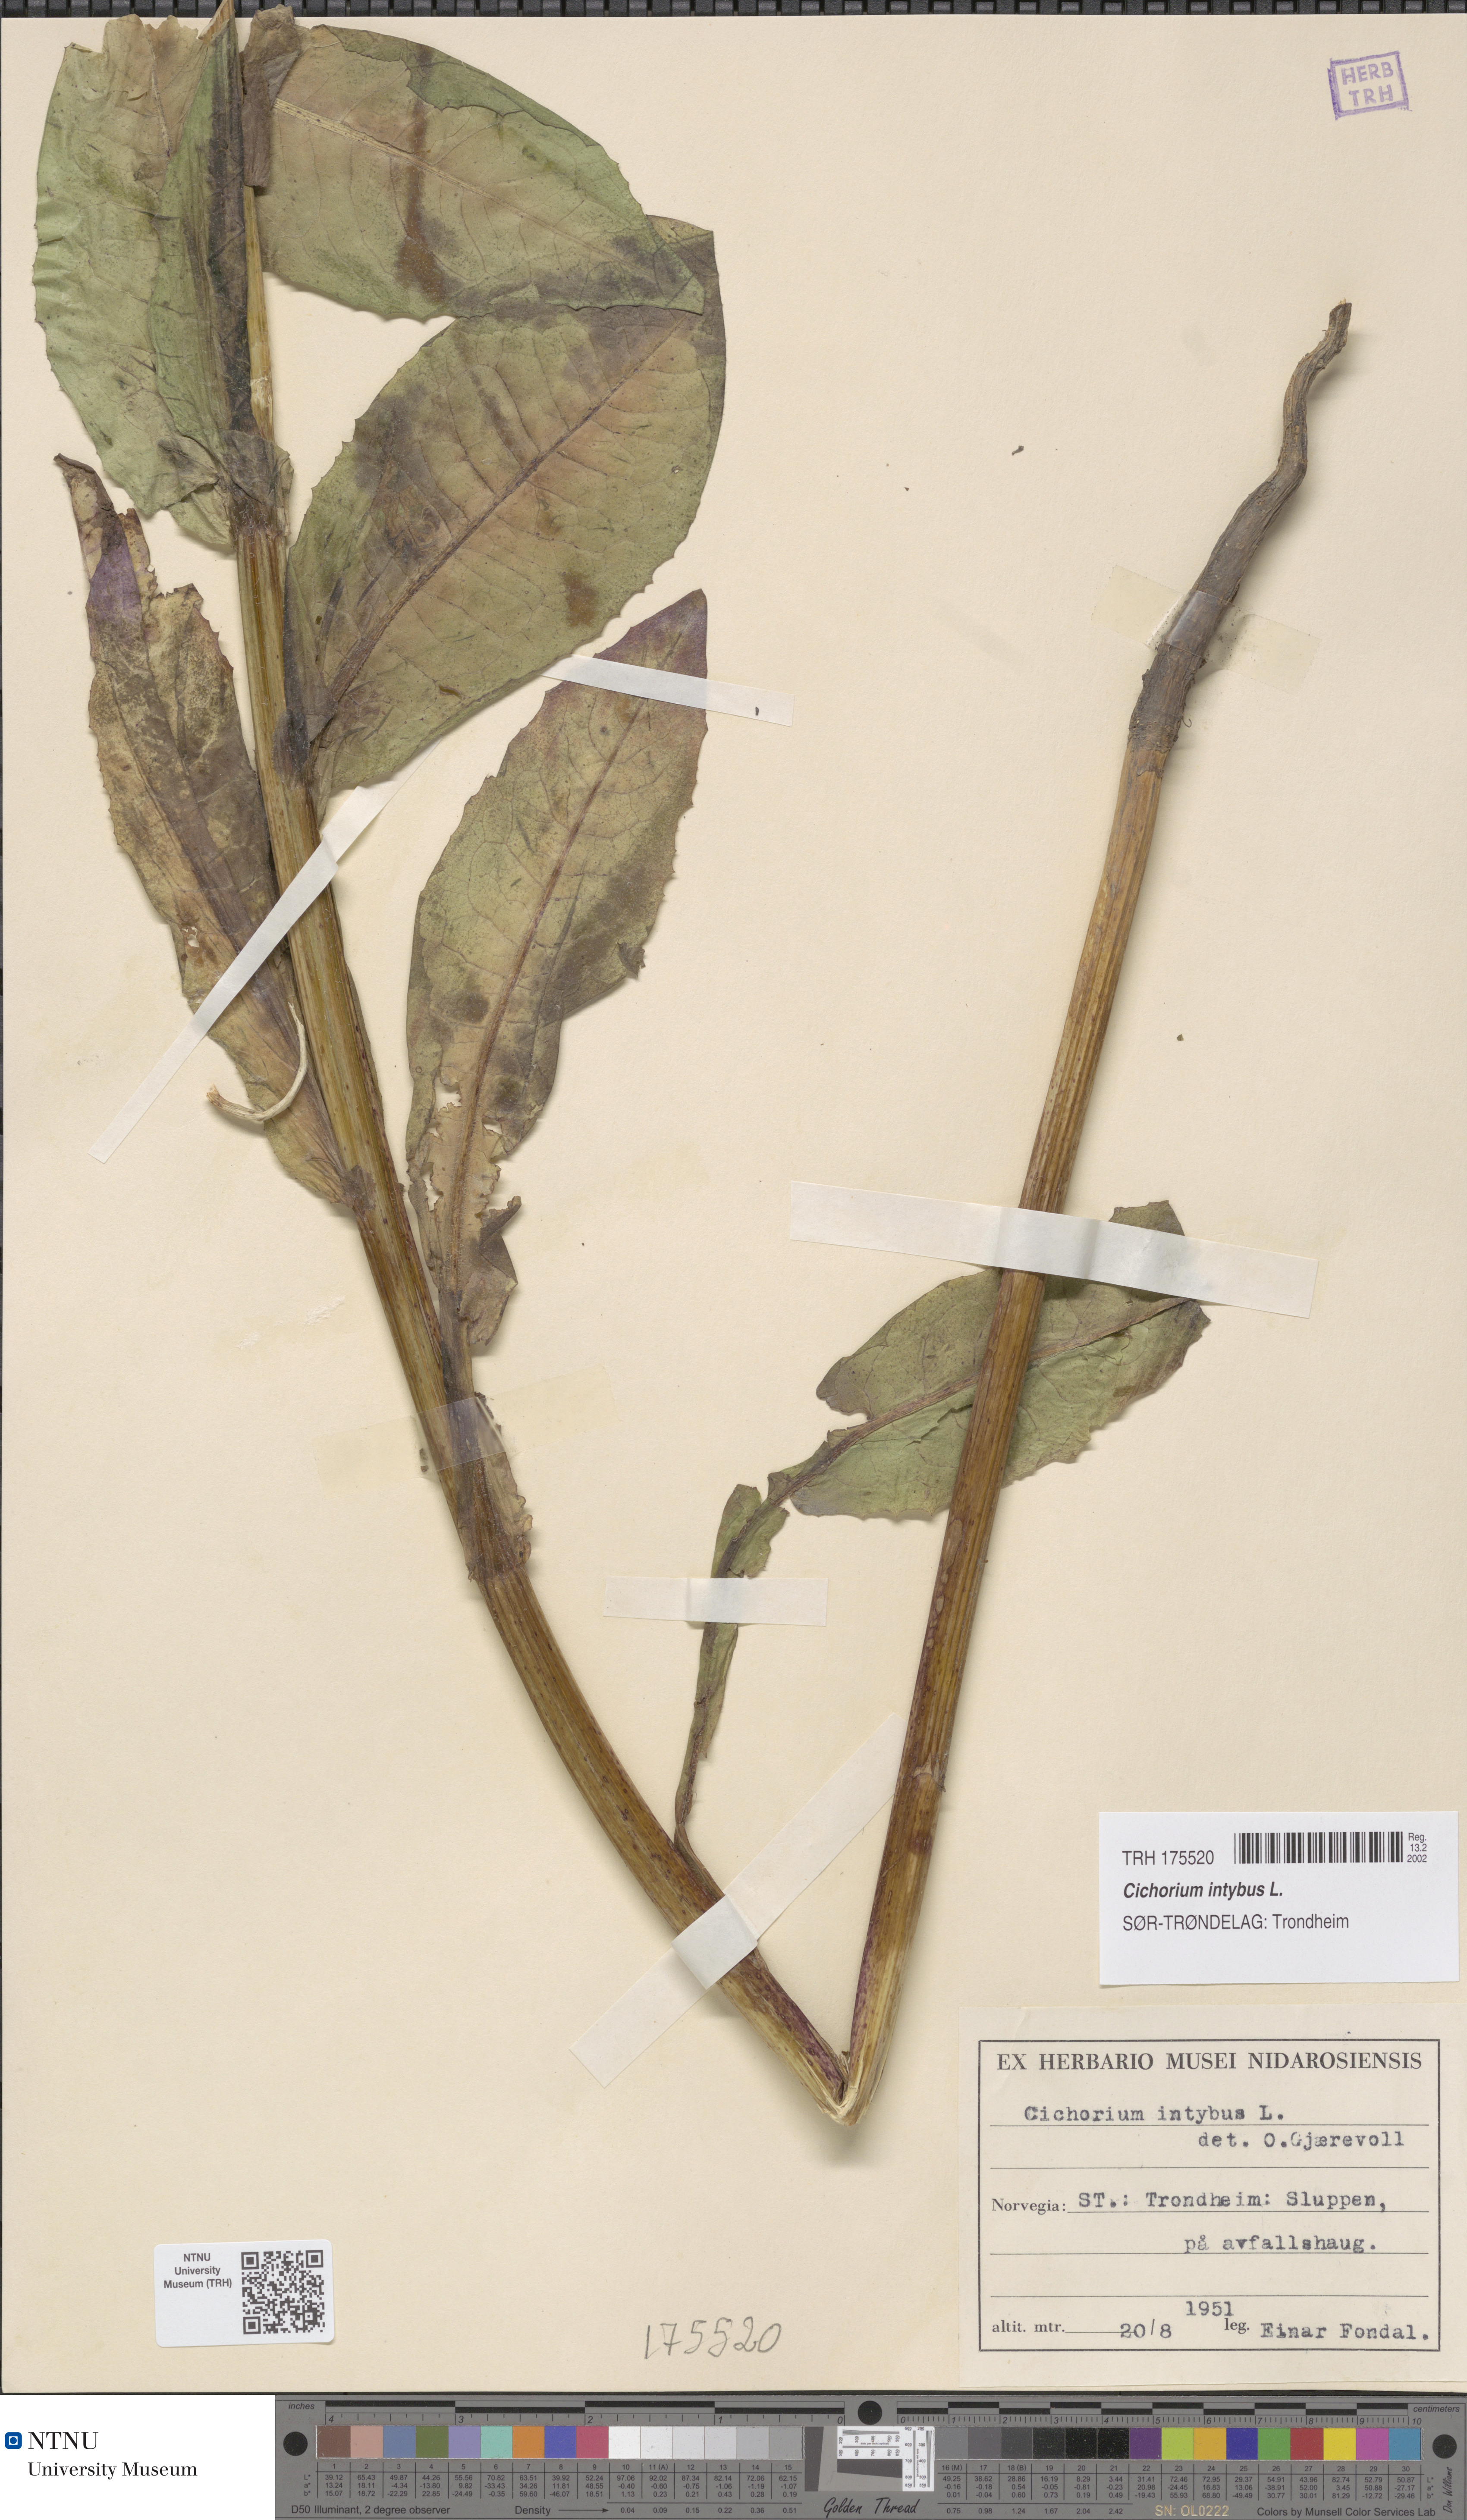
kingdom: Plantae
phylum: Tracheophyta
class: Magnoliopsida
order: Asterales
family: Asteraceae
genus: Cichorium
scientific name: Cichorium intybus
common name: Chicory
